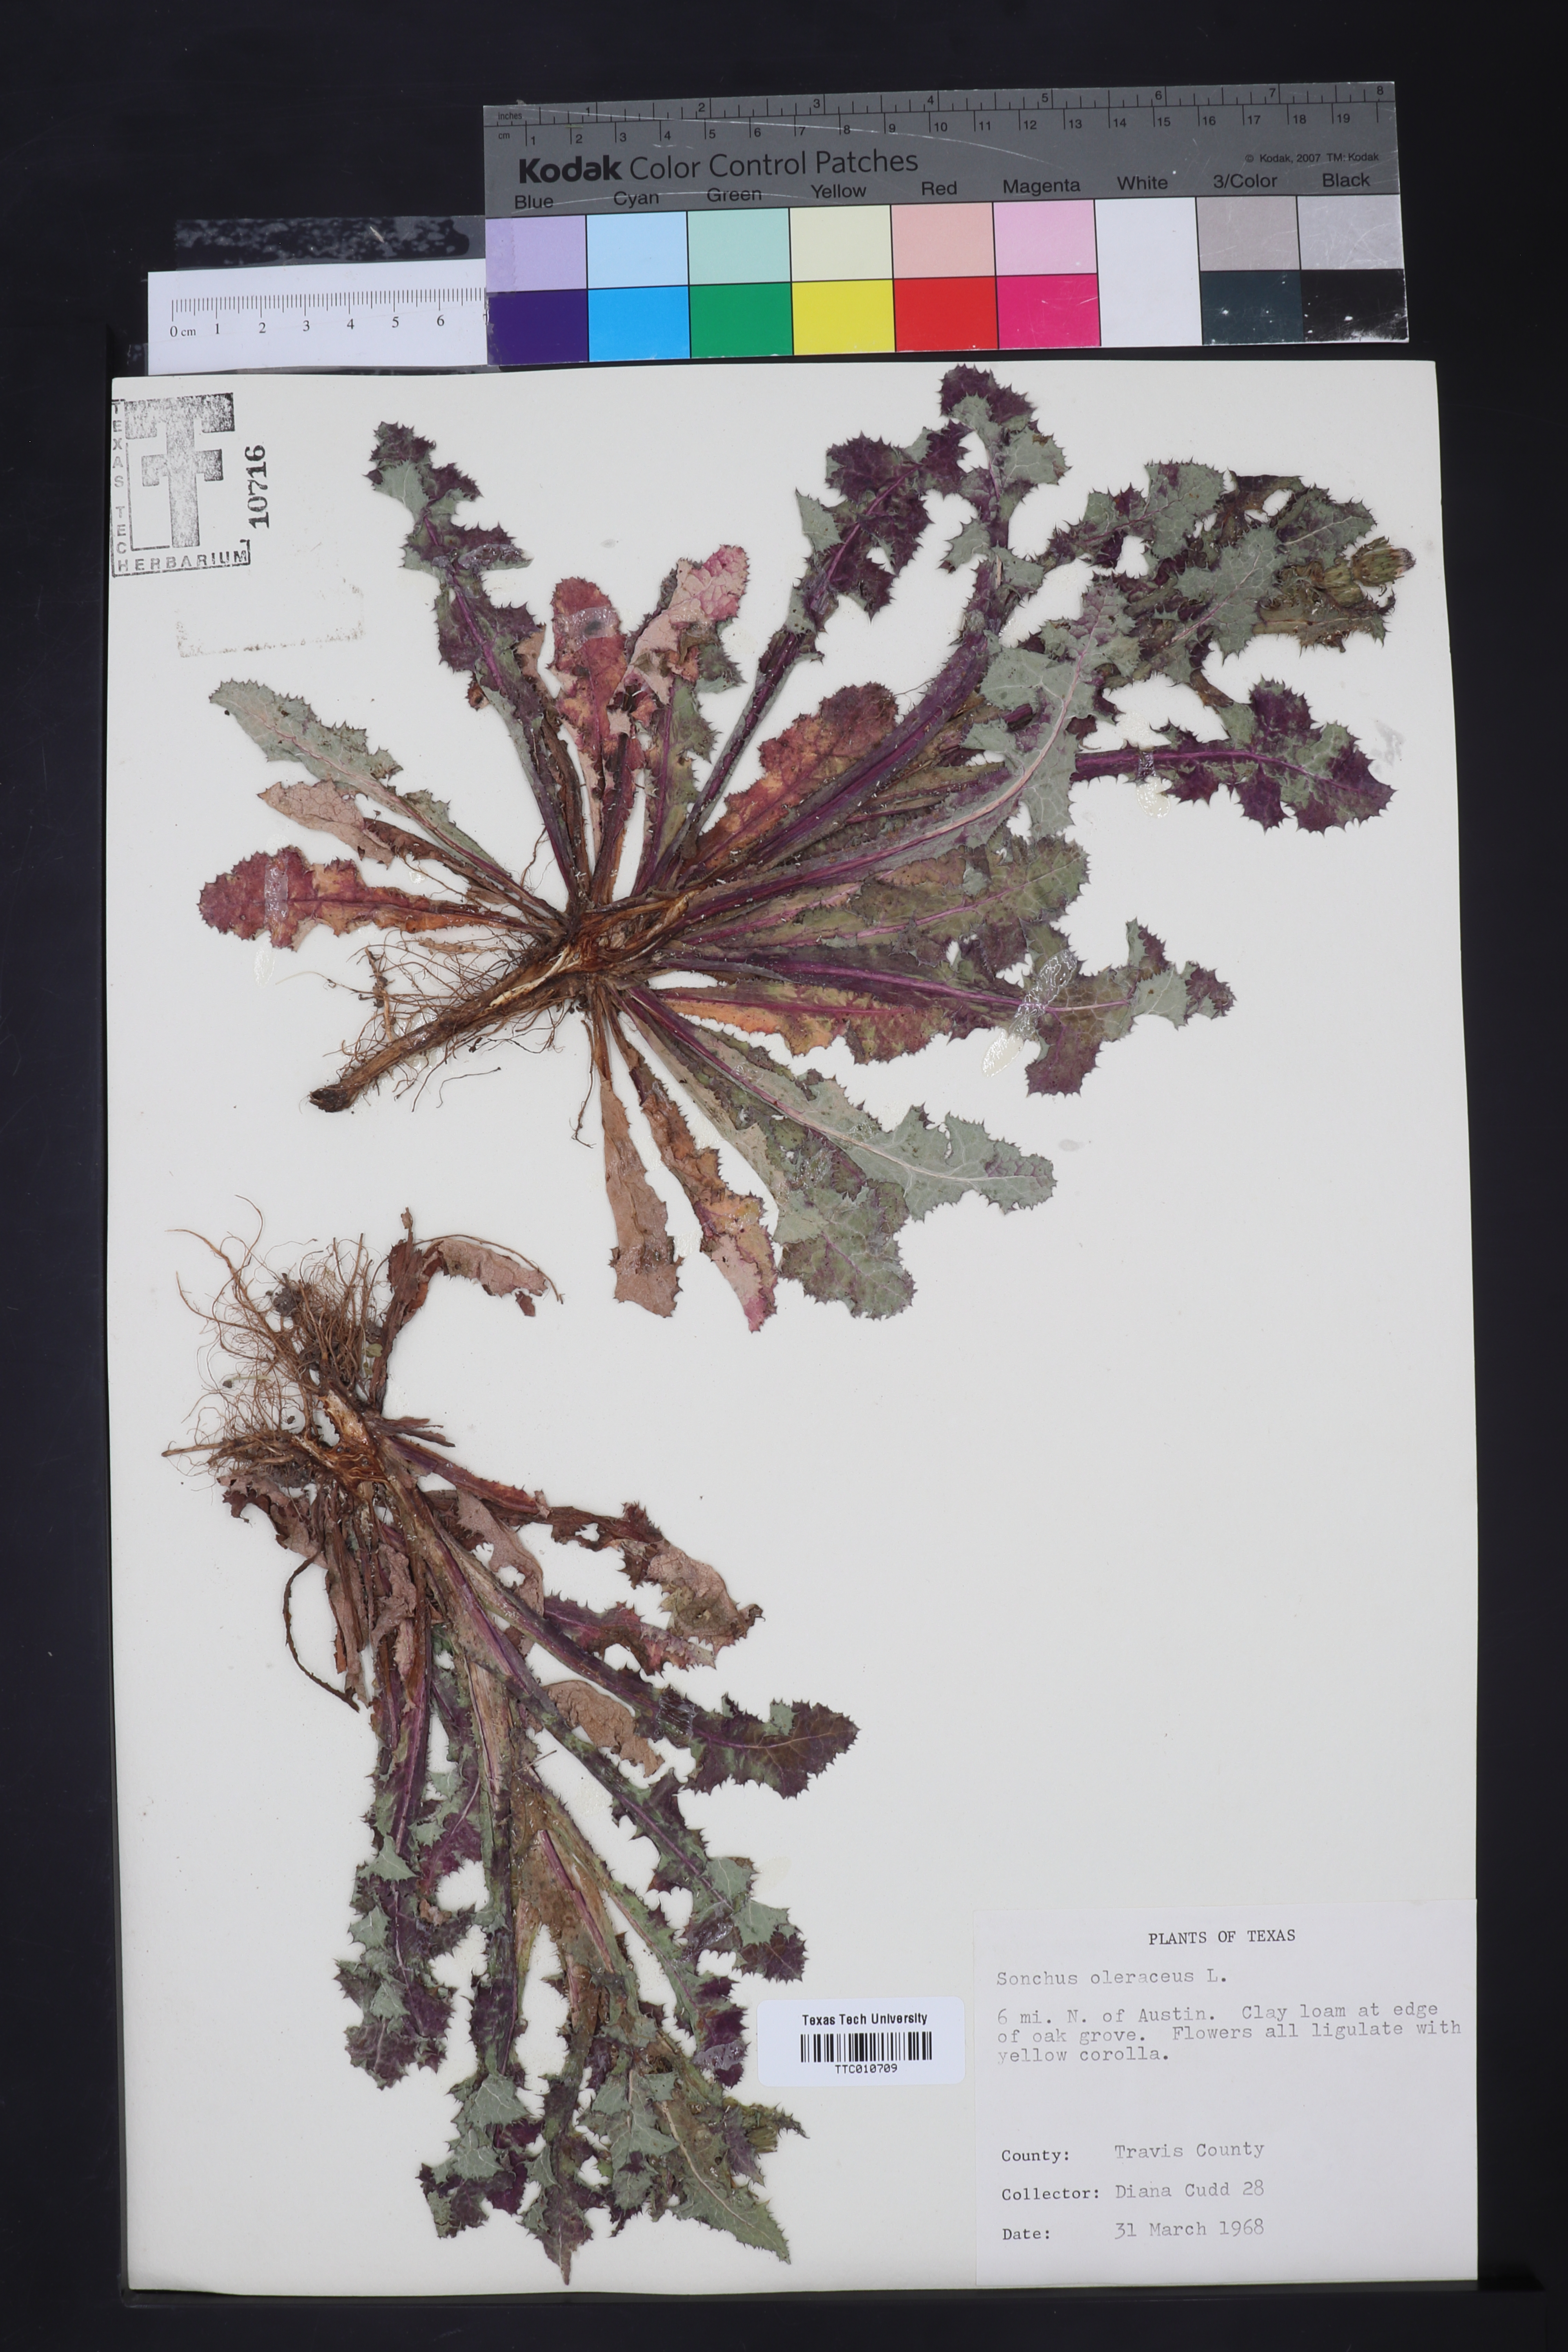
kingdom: Plantae
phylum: Tracheophyta
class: Magnoliopsida
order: Asterales
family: Asteraceae
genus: Sonchus
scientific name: Sonchus oleraceus
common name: Common sowthistle
